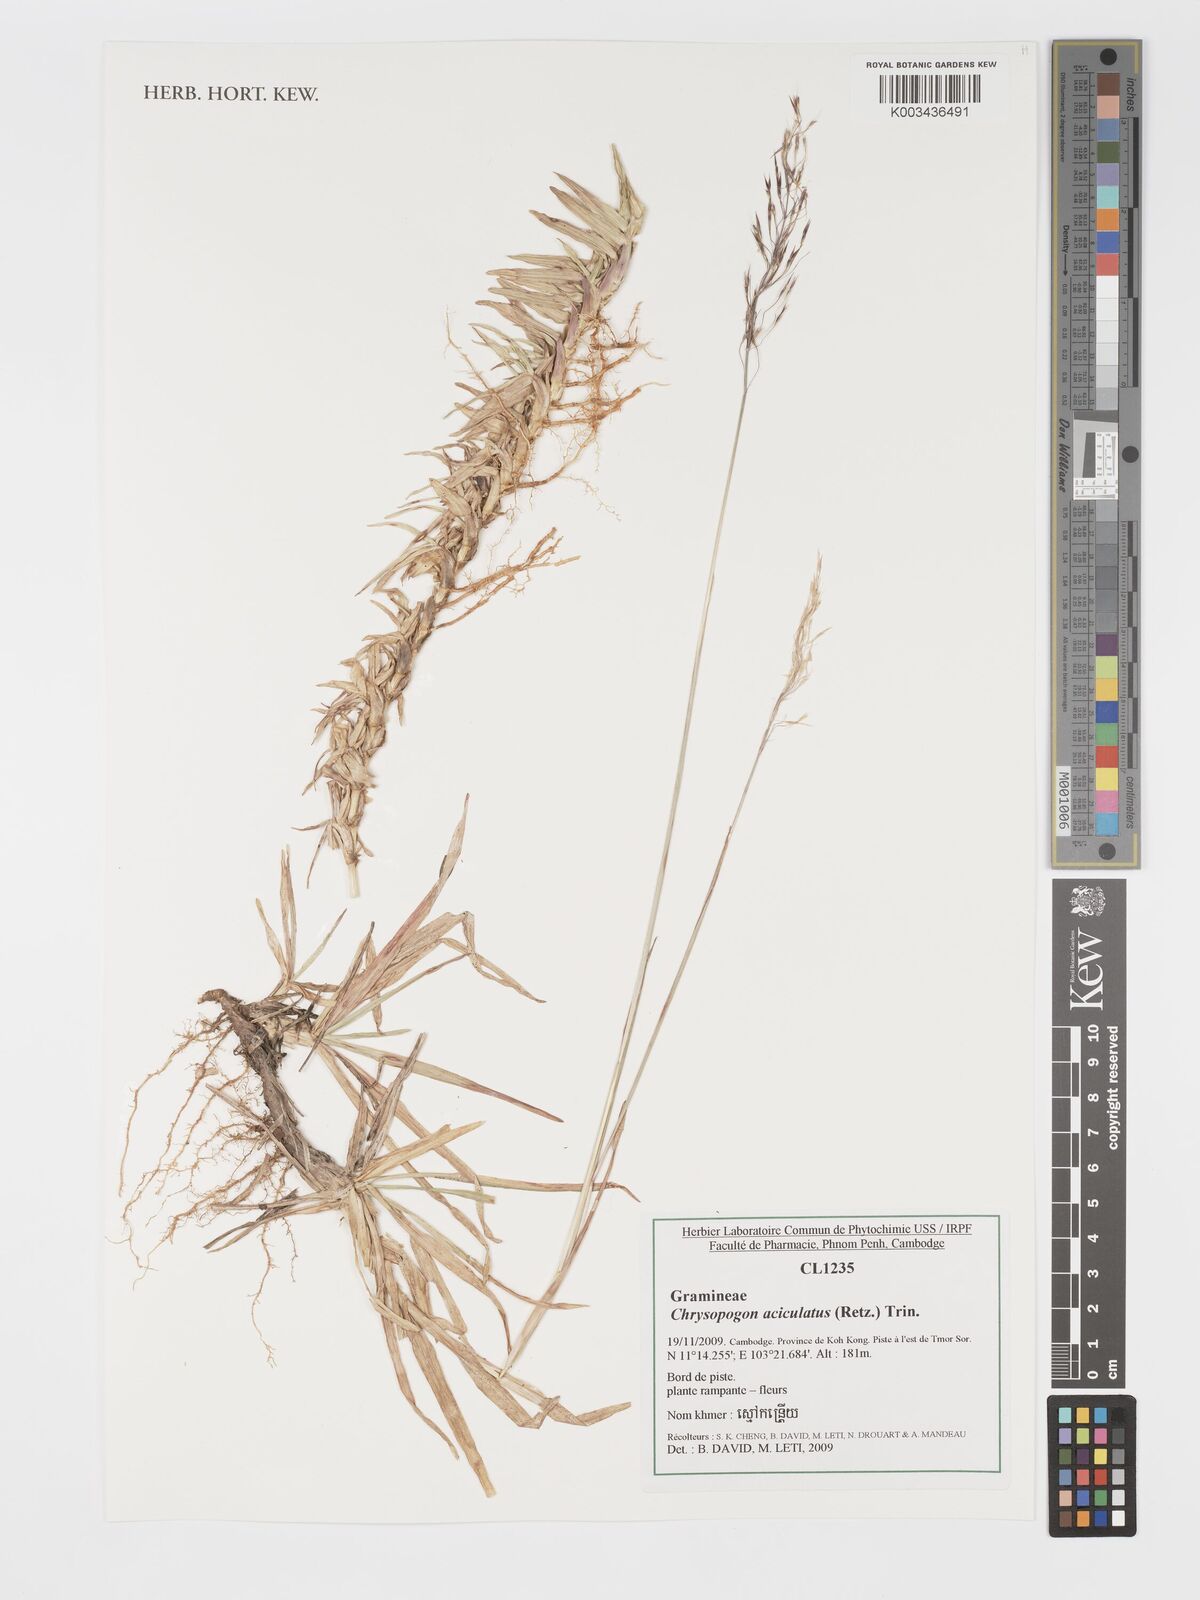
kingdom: Plantae
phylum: Tracheophyta
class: Liliopsida
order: Poales
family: Poaceae
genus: Chrysopogon
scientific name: Chrysopogon aciculatus
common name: Pilipiliula
